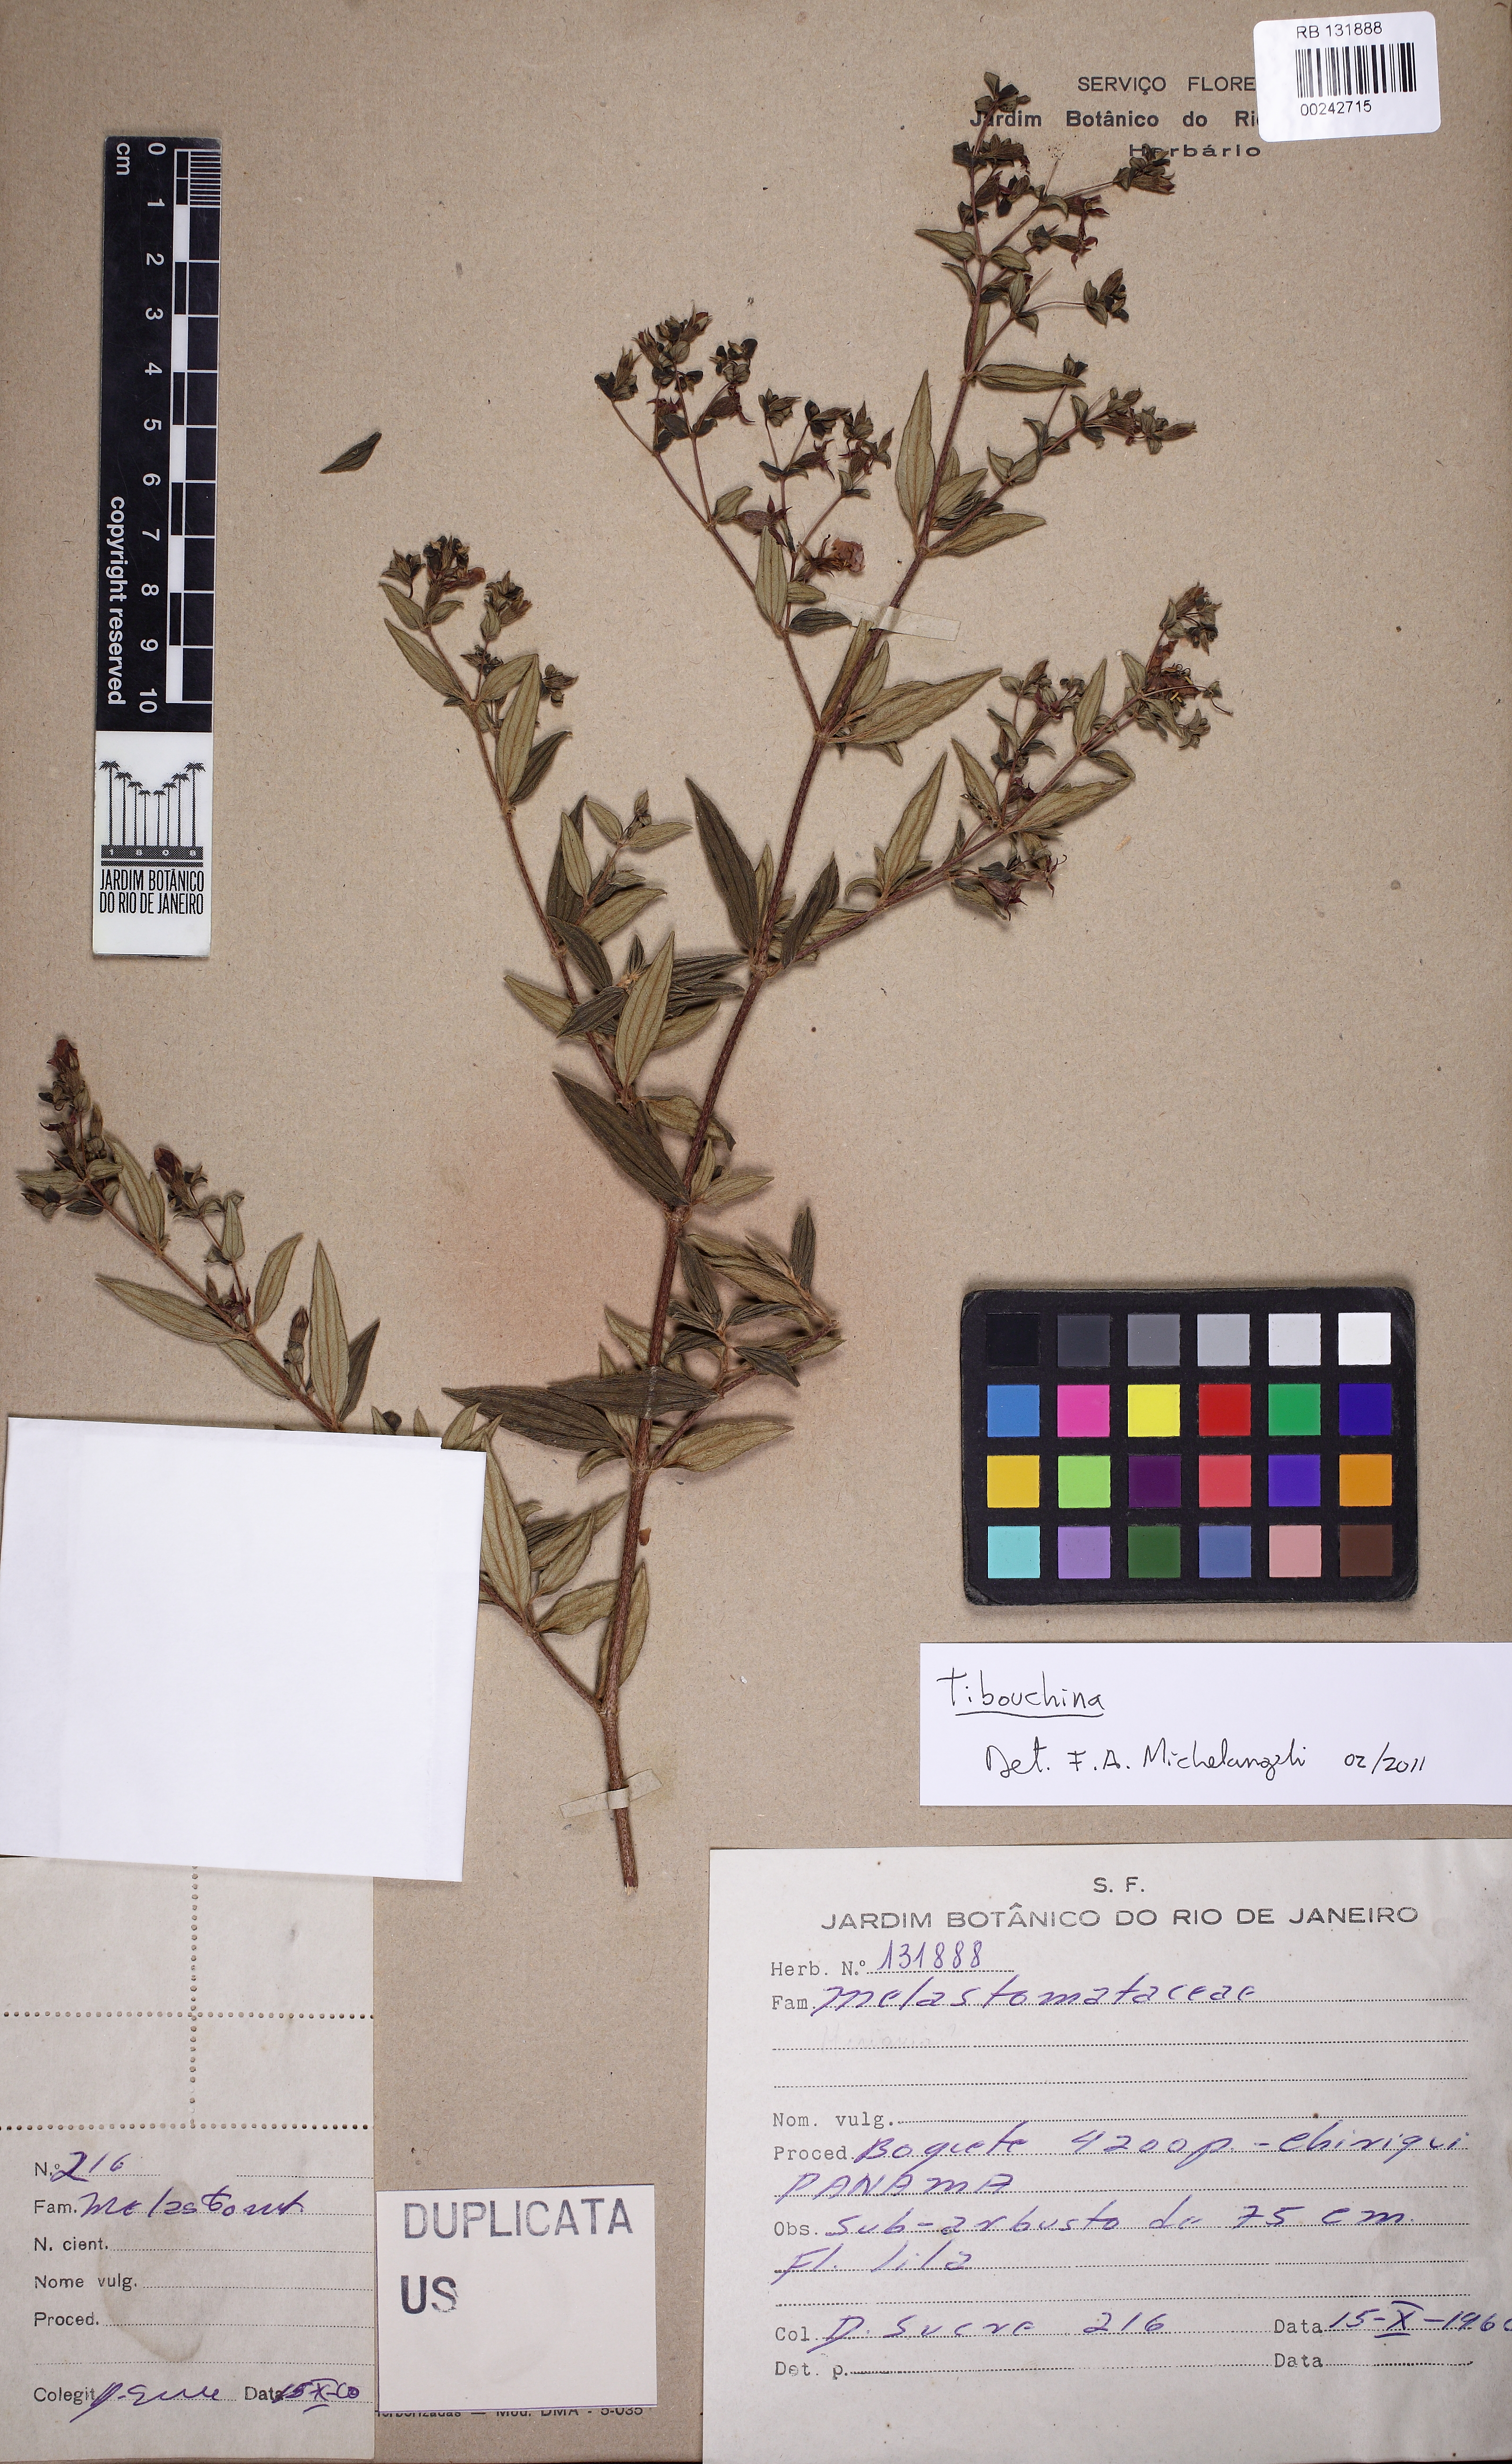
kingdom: Plantae
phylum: Tracheophyta
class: Magnoliopsida
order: Myrtales
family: Melastomataceae
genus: Tibouchina
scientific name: Tibouchina
